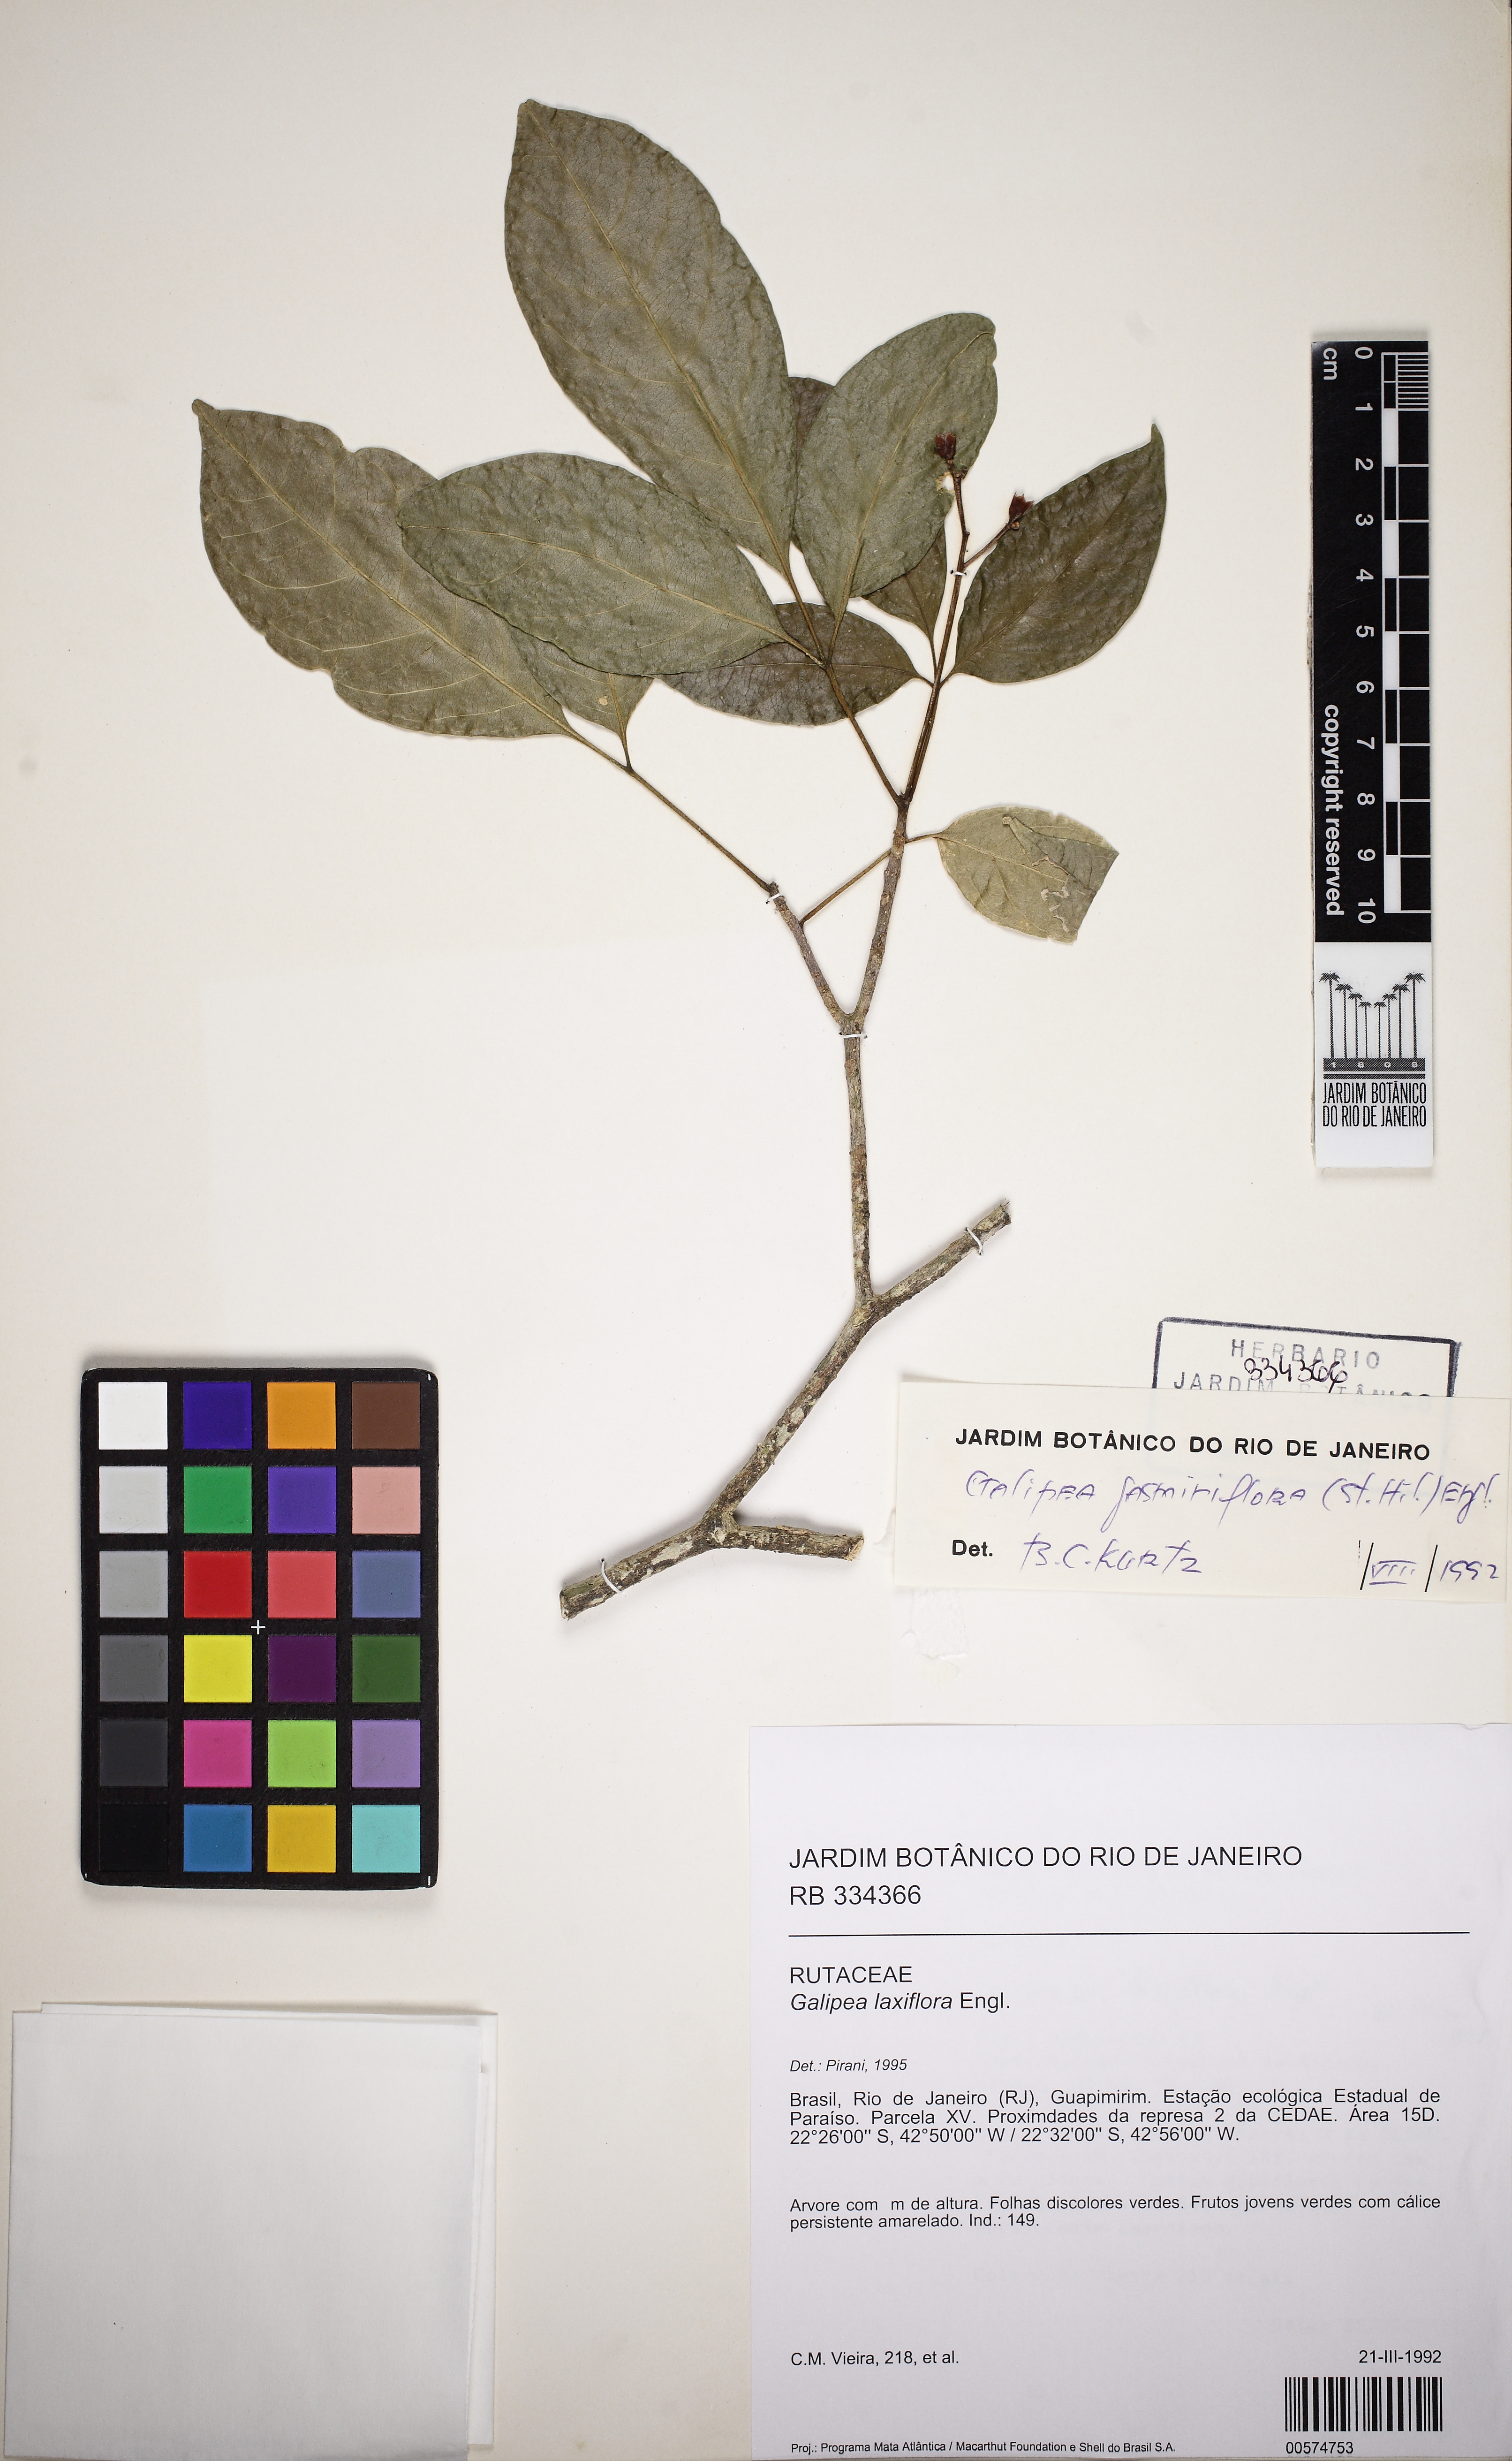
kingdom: Plantae
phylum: Tracheophyta
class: Magnoliopsida
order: Sapindales
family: Rutaceae
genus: Galipea
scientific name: Galipea laxiflora
